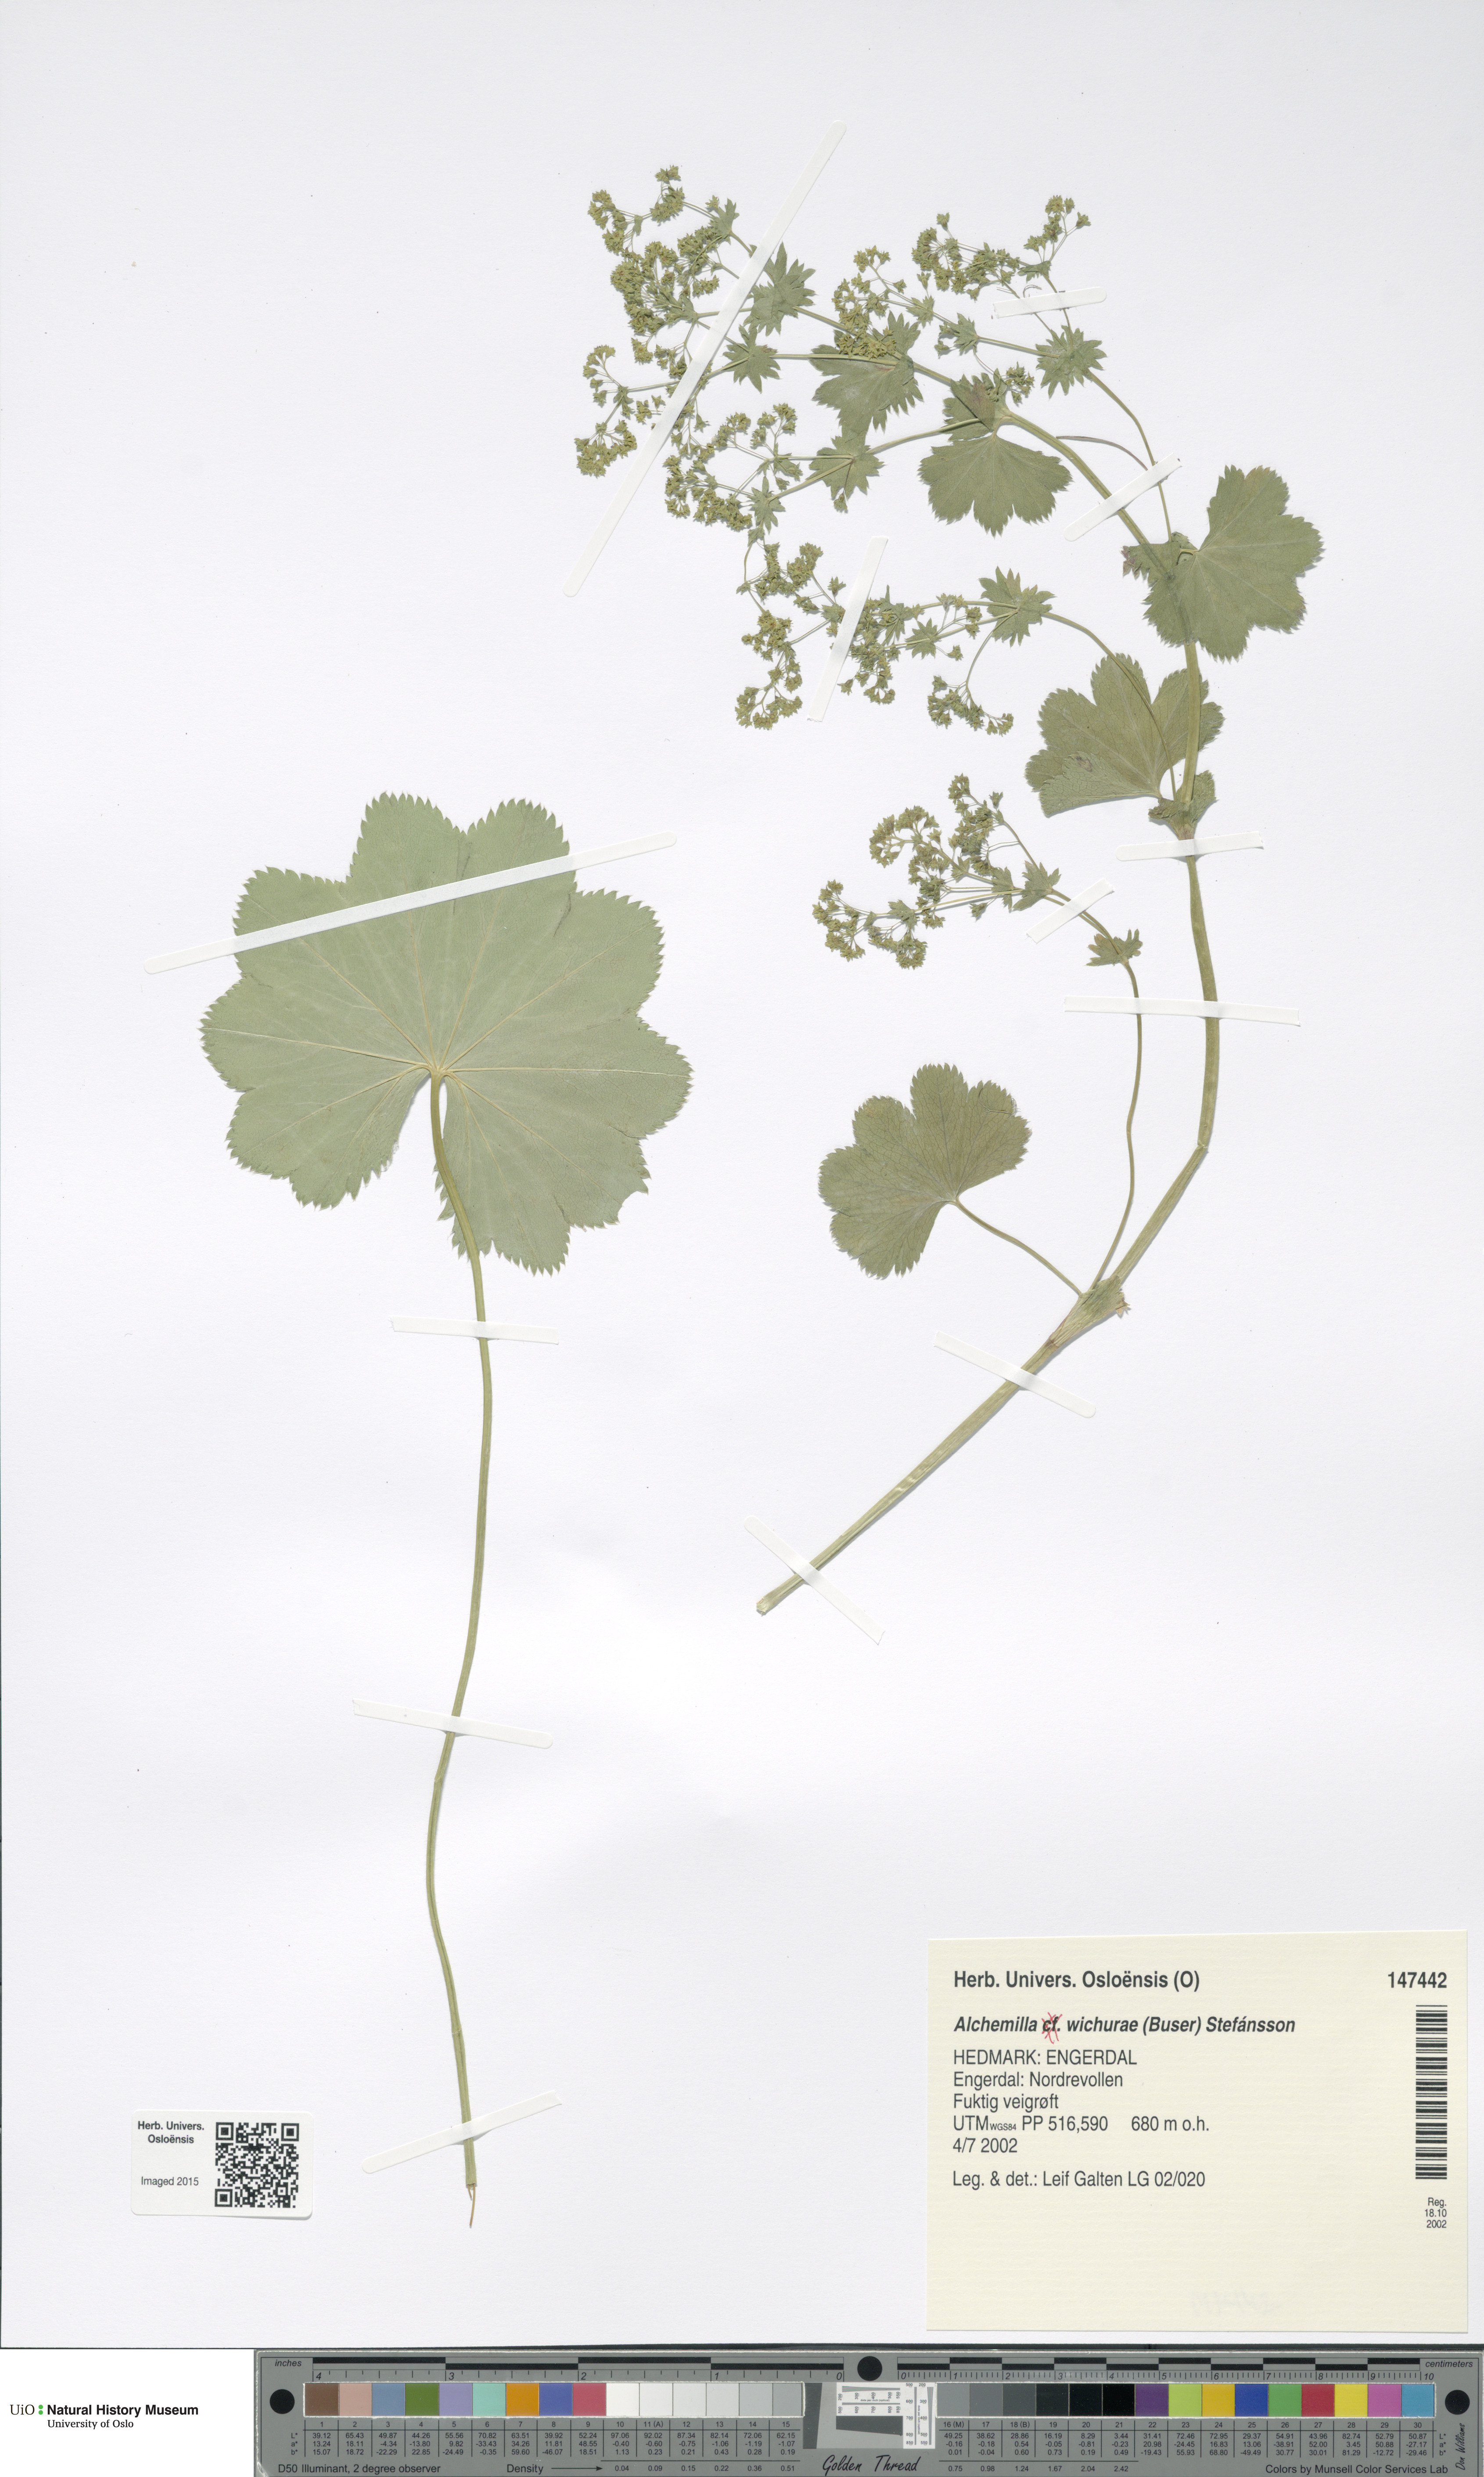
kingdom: Plantae
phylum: Tracheophyta
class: Magnoliopsida
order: Rosales
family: Rosaceae
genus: Alchemilla
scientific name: Alchemilla wichurae
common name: Rock lady's mantle
